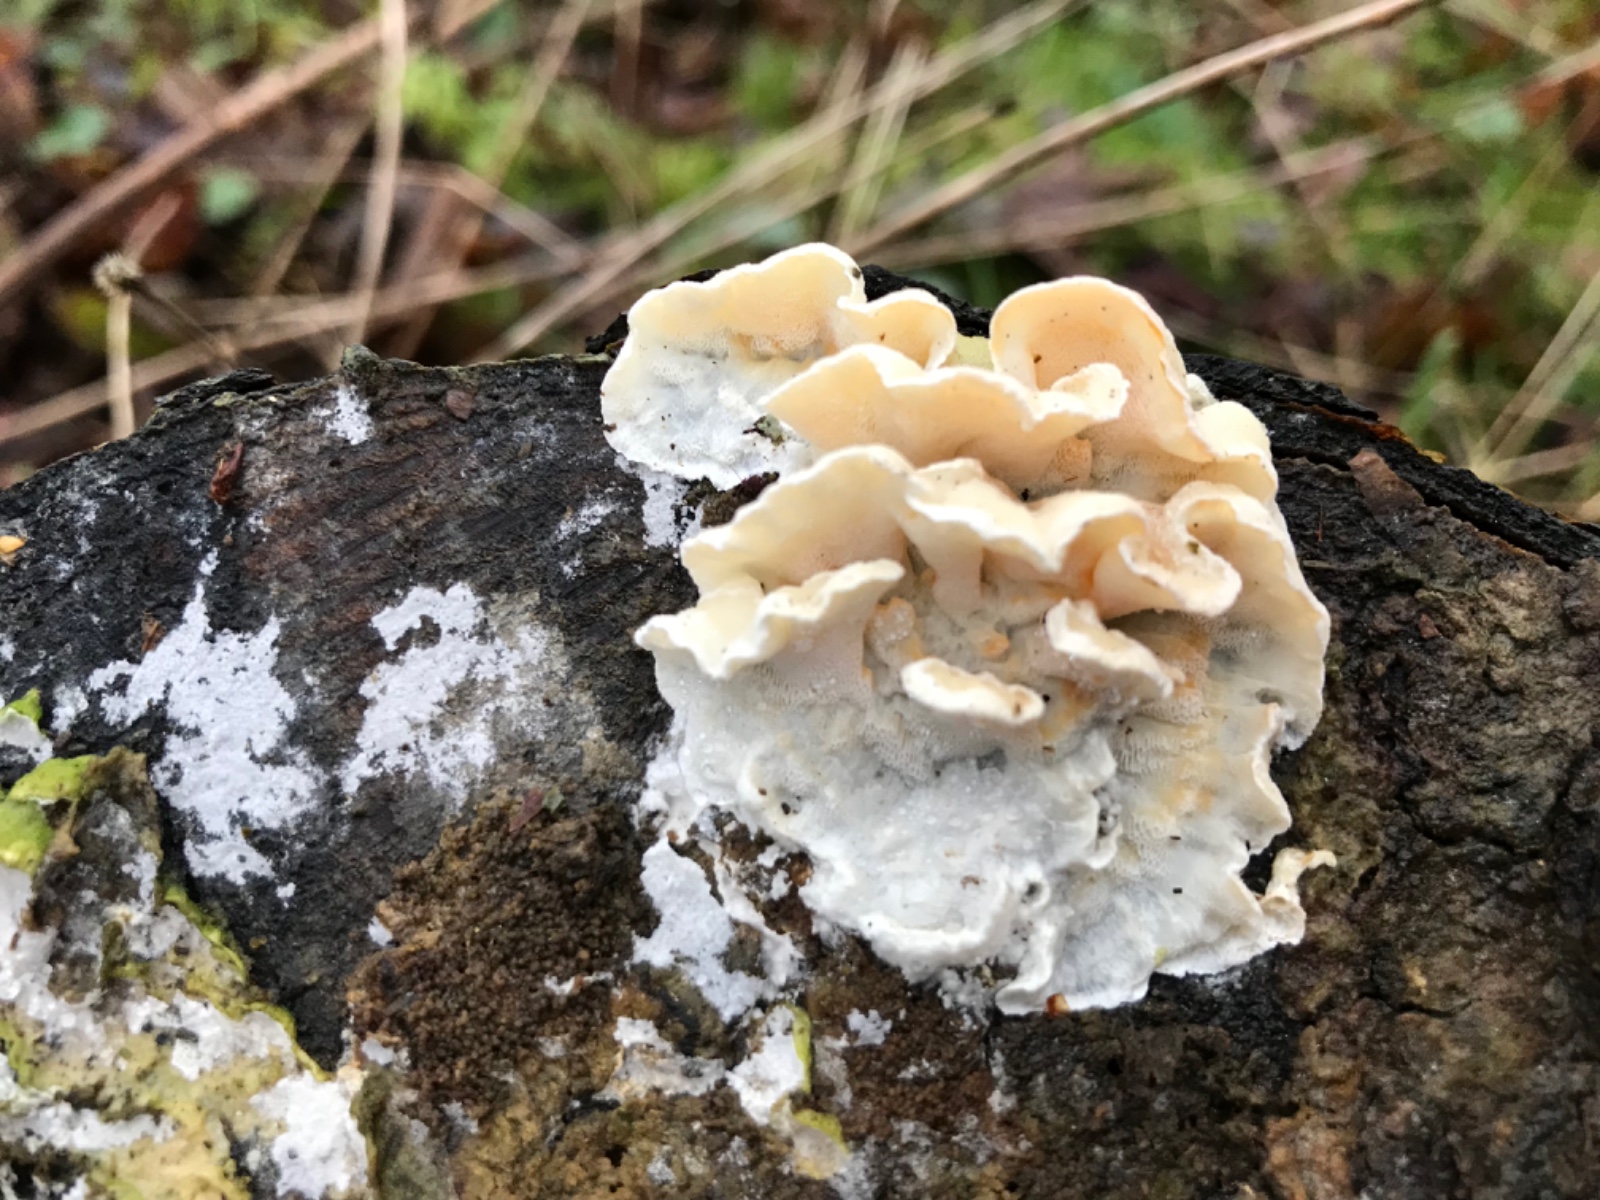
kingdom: Fungi
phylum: Basidiomycota
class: Agaricomycetes
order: Polyporales
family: Incrustoporiaceae
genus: Skeletocutis
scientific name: Skeletocutis amorpha
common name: orange krystalporesvamp
